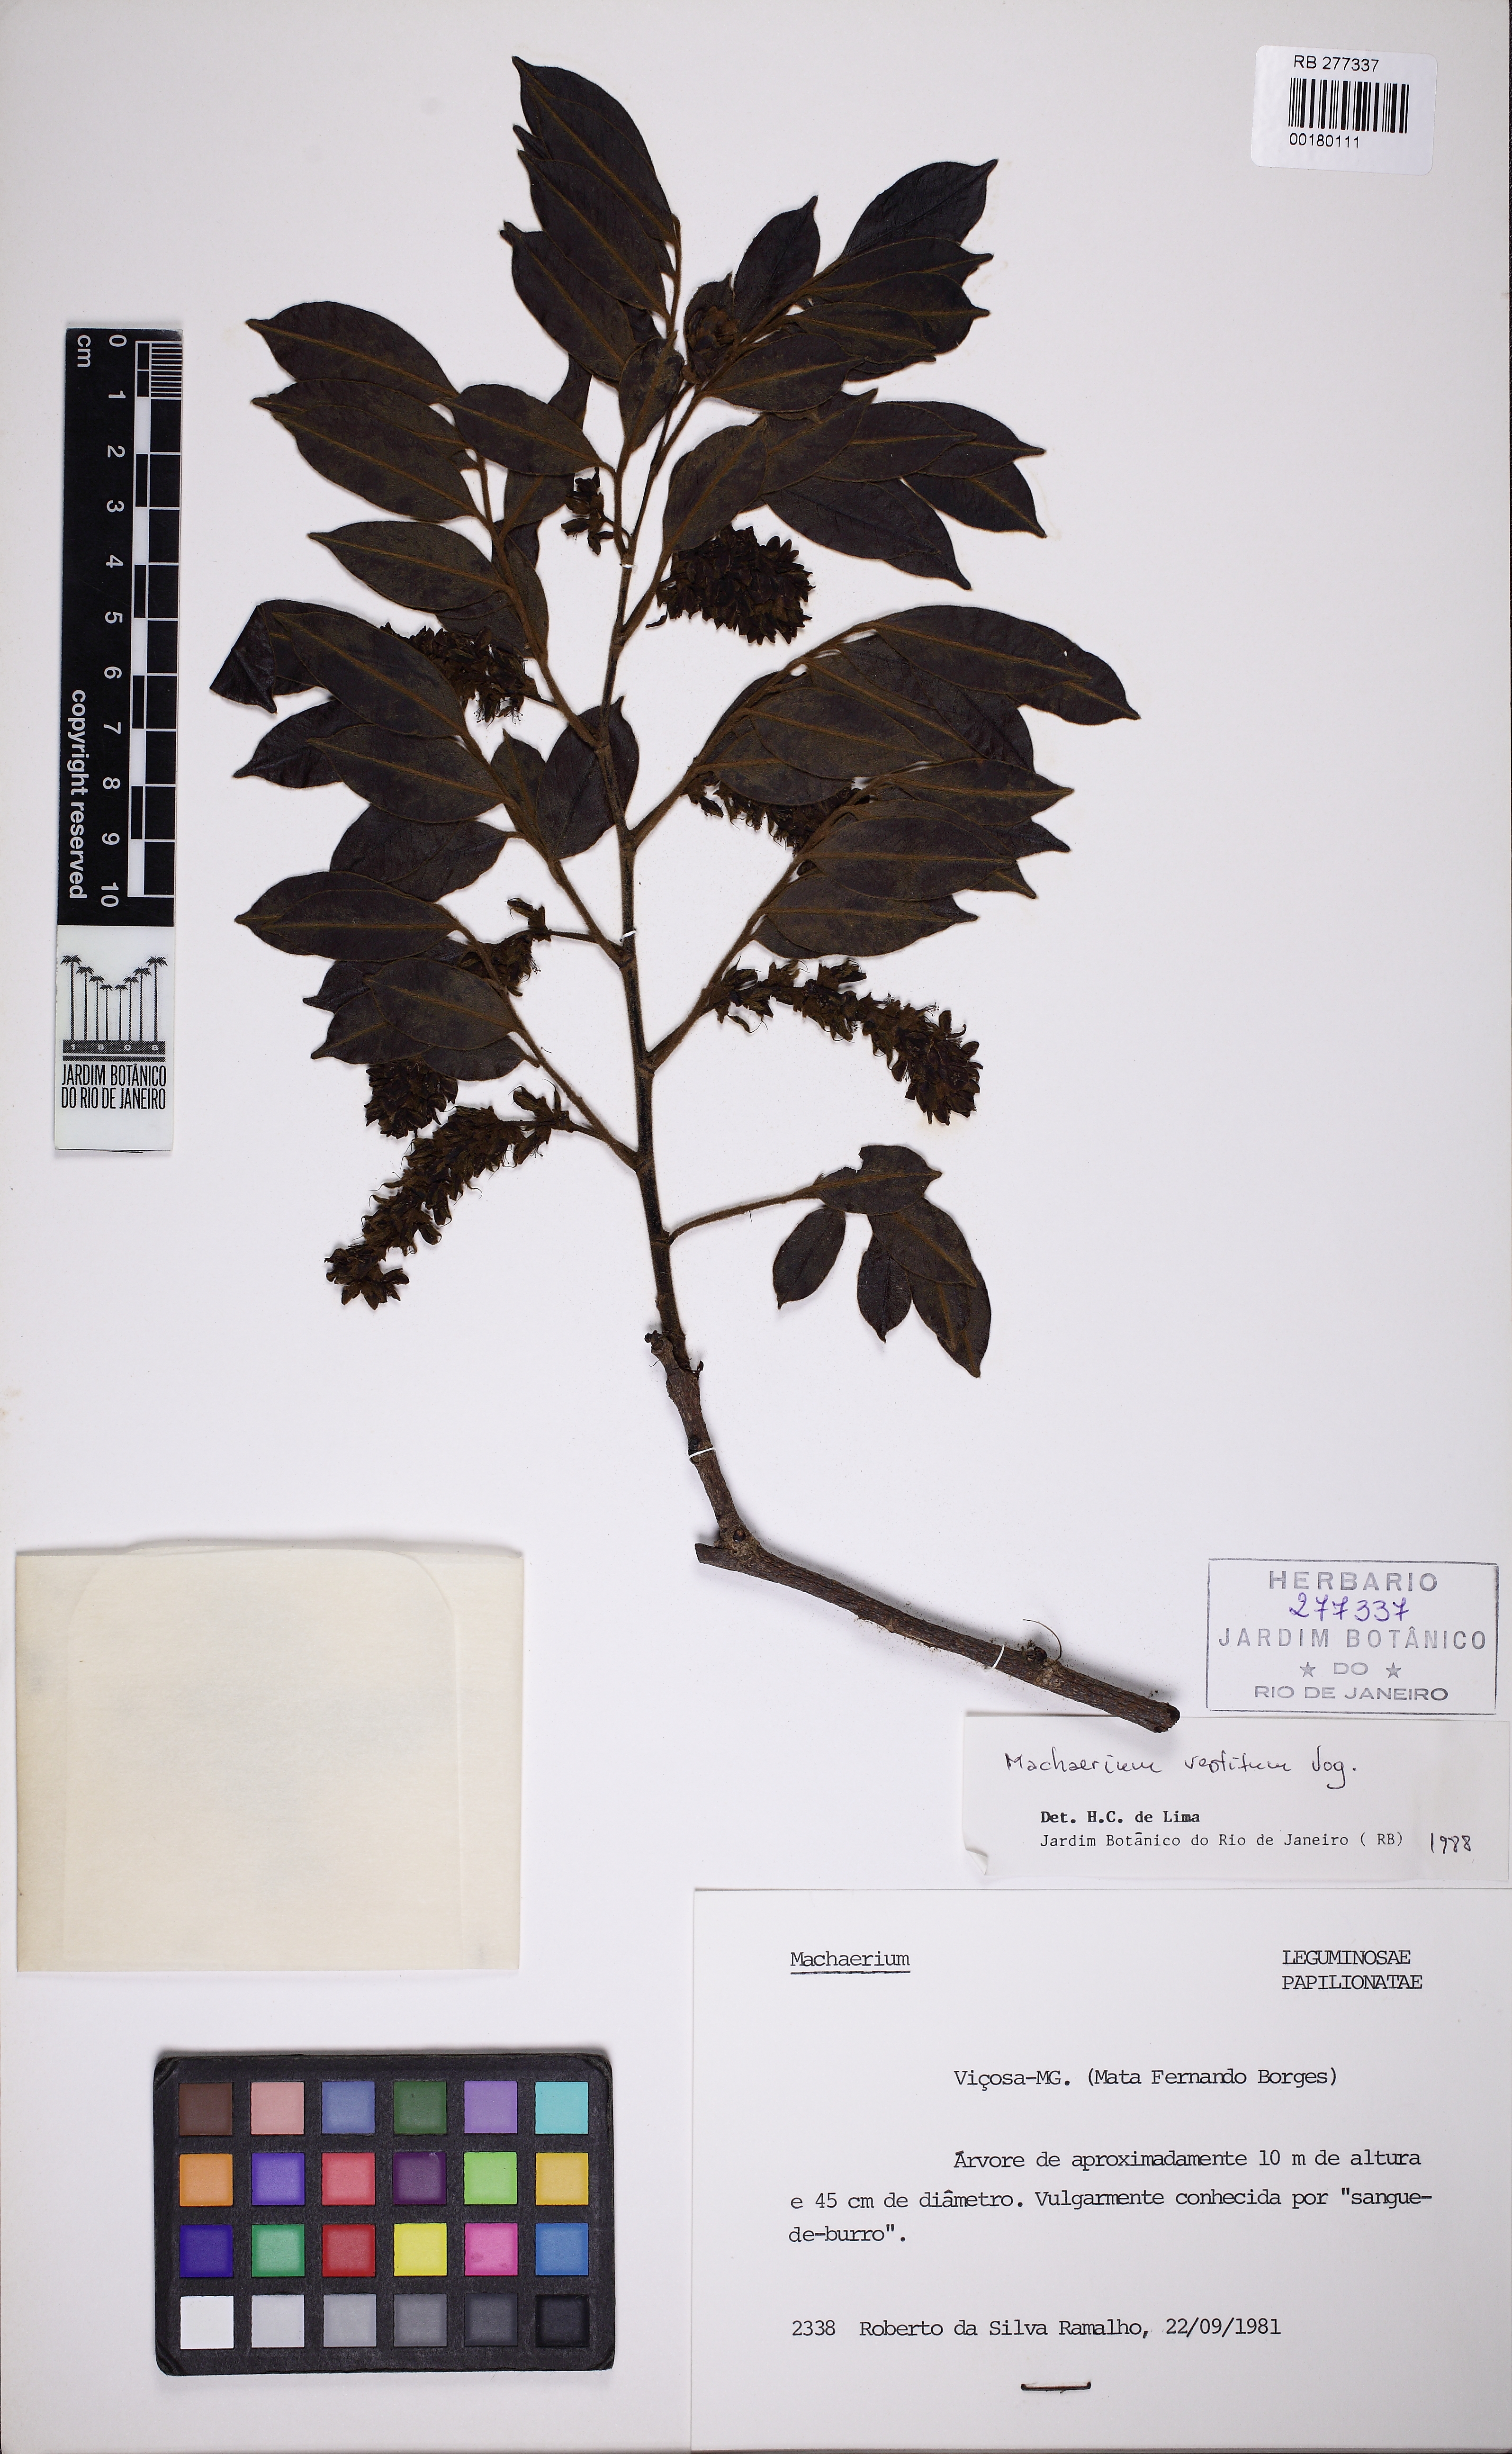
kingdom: Plantae
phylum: Tracheophyta
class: Magnoliopsida
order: Fabales
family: Fabaceae
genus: Machaerium
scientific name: Machaerium brasiliense
